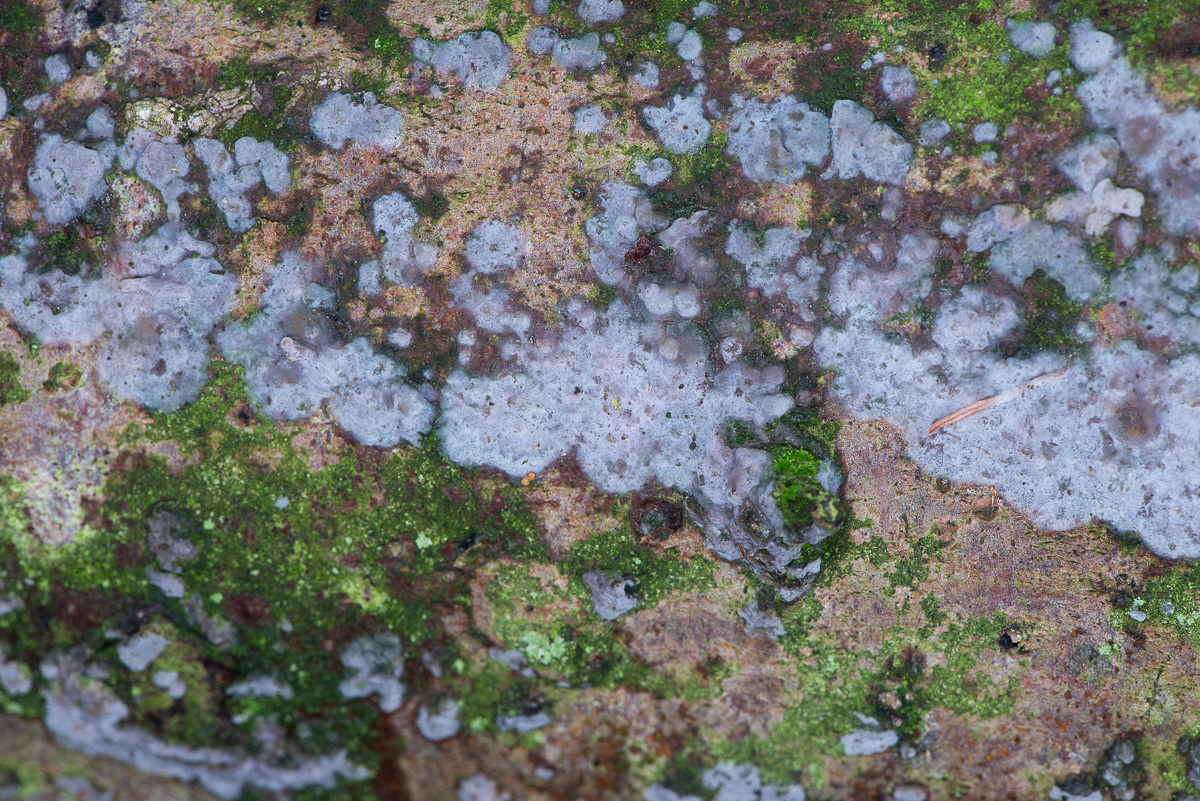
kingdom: Fungi
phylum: Basidiomycota
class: Agaricomycetes
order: Sebacinales
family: Sebacinaceae
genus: Sebacina
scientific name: Sebacina grisea
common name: blågrå bævrehinde
